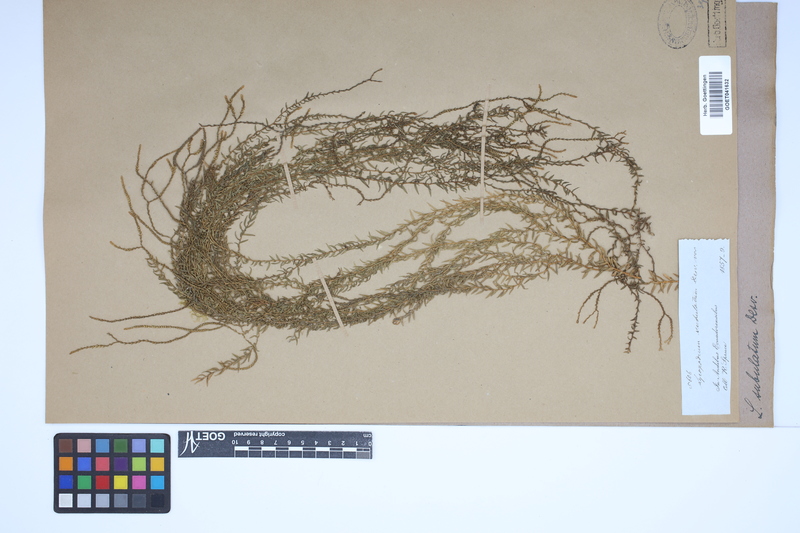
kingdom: Plantae
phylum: Tracheophyta
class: Lycopodiopsida
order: Lycopodiales
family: Lycopodiaceae
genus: Phlegmariurus
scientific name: Phlegmariurus subulatus
